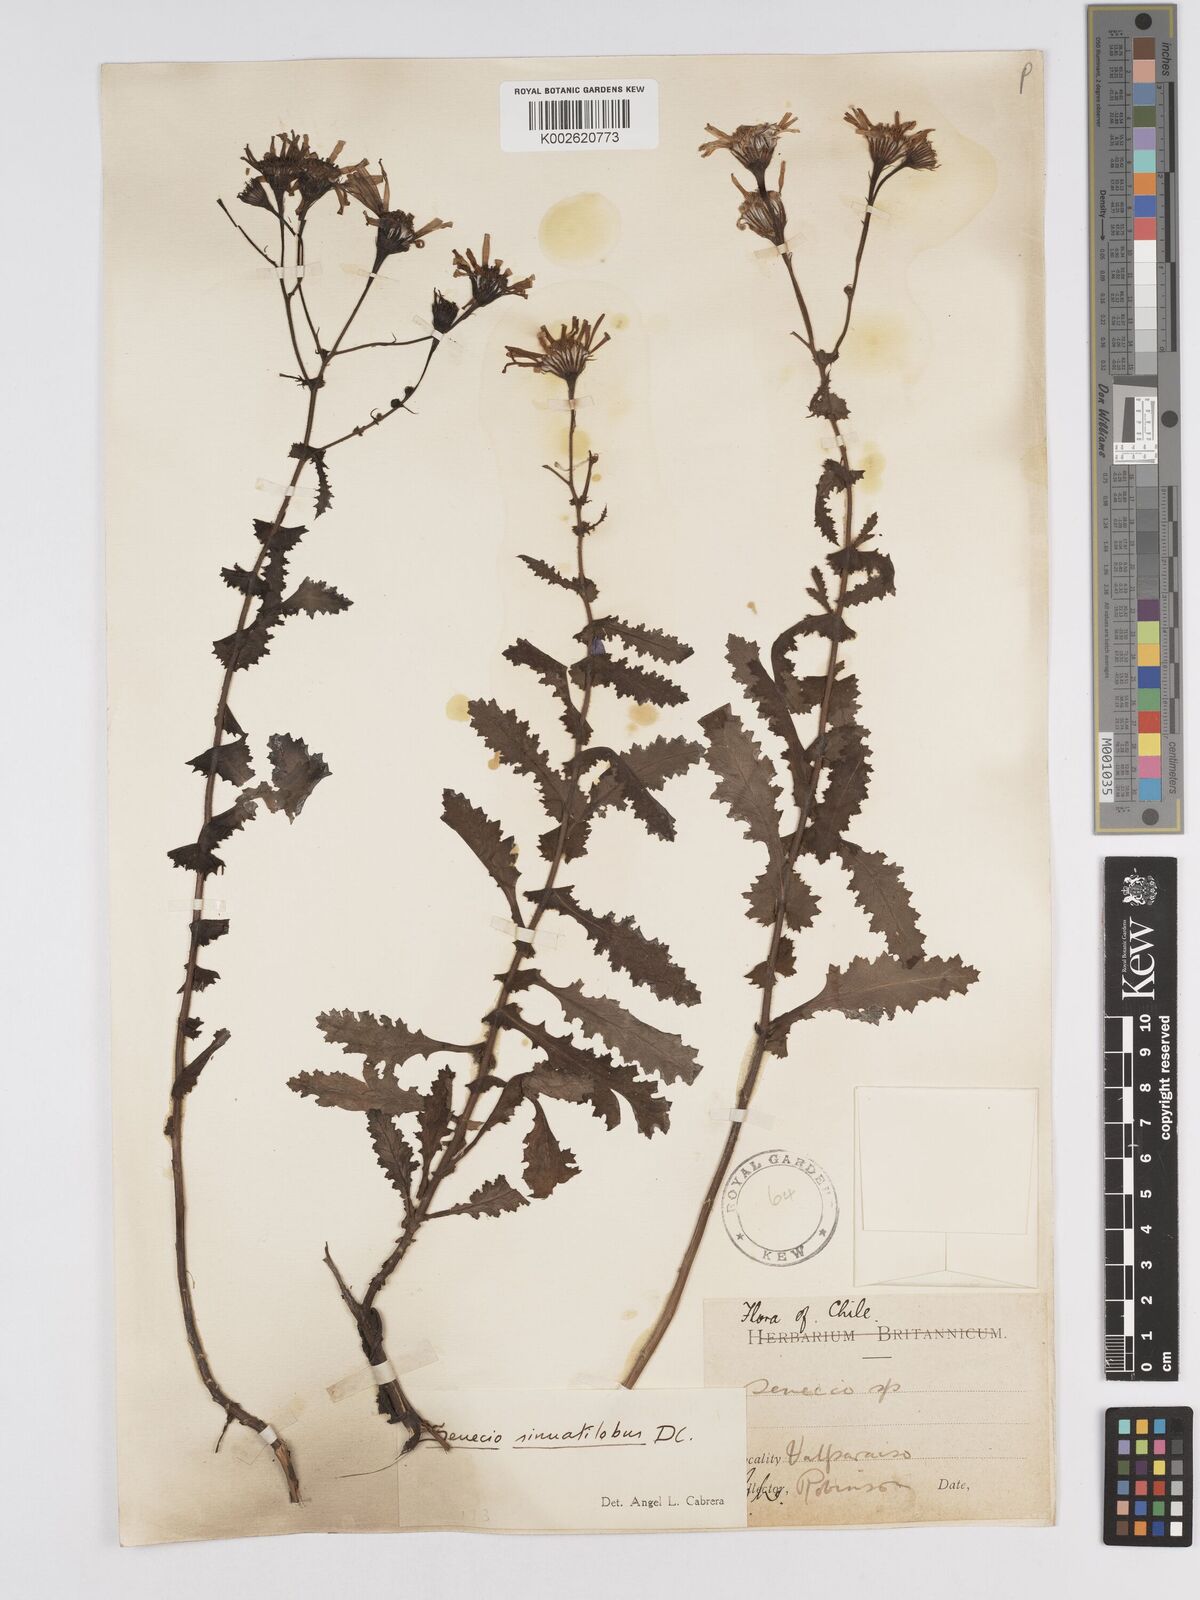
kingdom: Plantae
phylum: Tracheophyta
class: Magnoliopsida
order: Asterales
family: Asteraceae
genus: Senecio
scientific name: Senecio sinuatilobus
